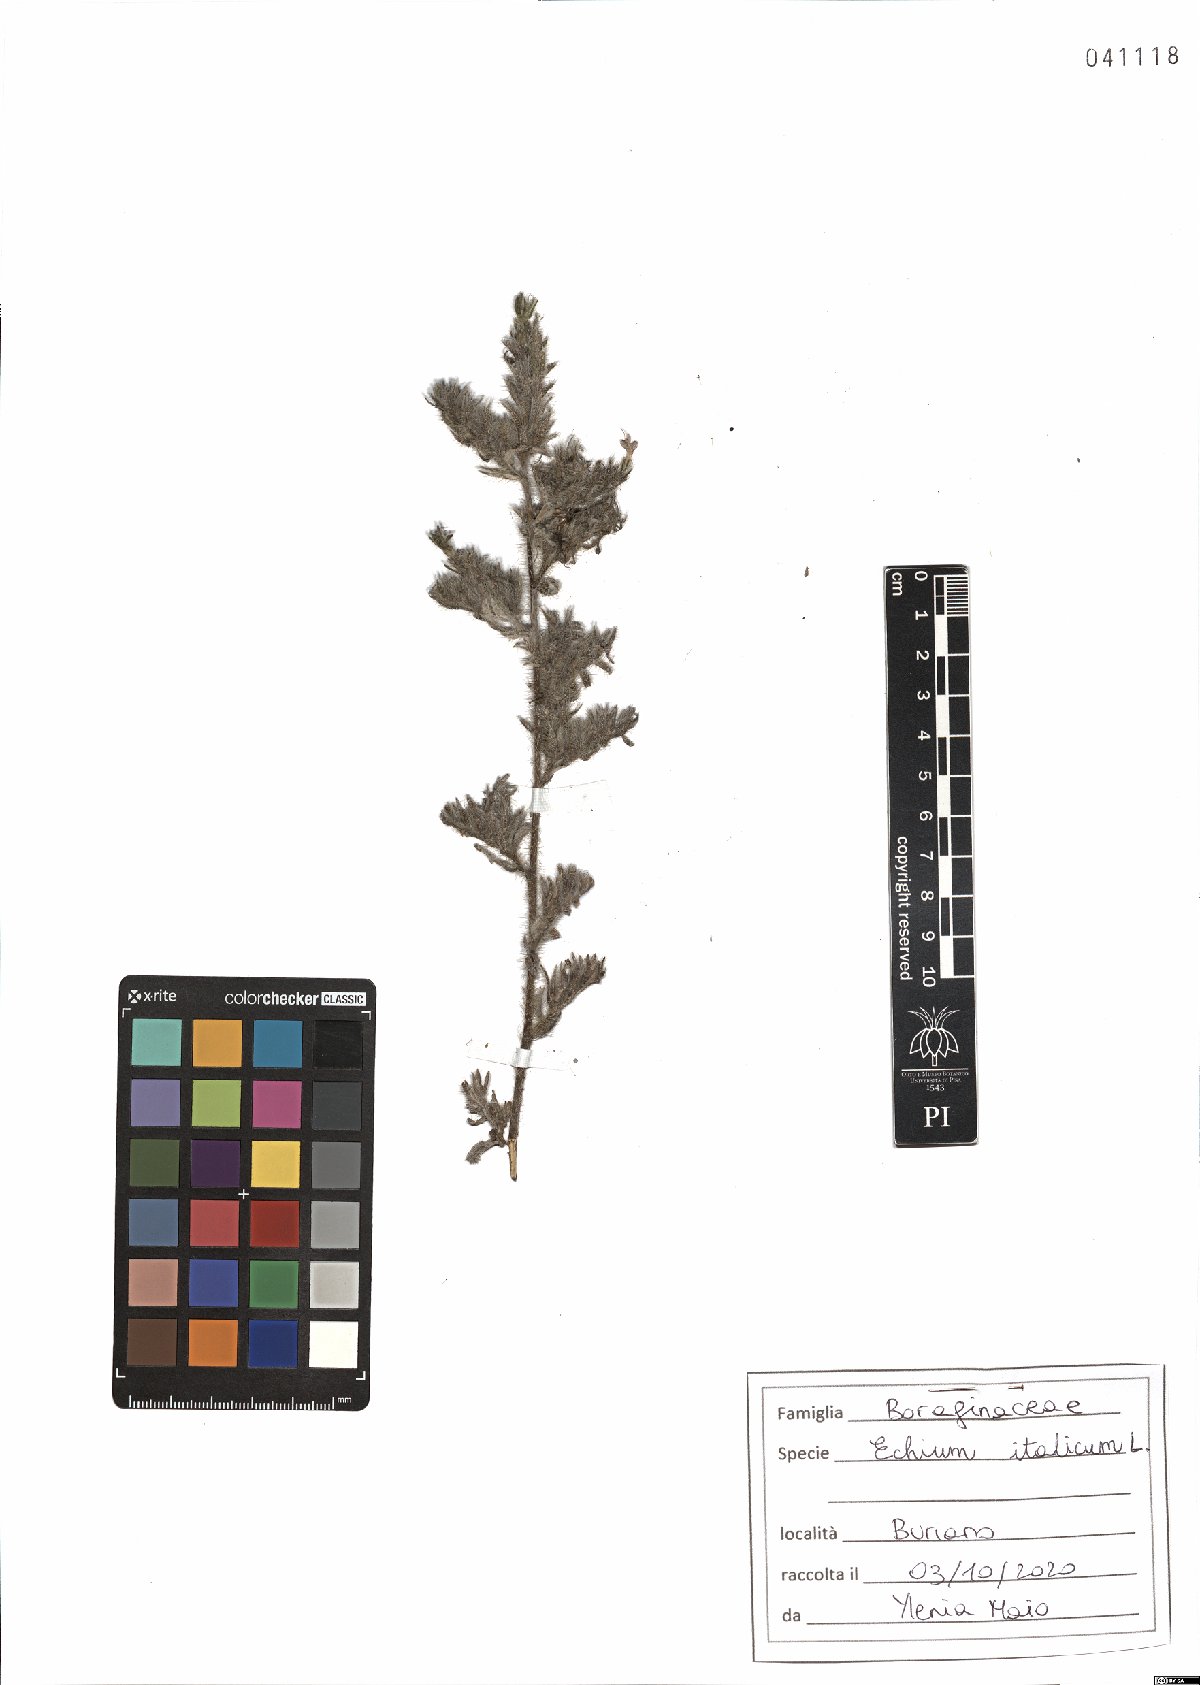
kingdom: Plantae
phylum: Tracheophyta
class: Magnoliopsida
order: Boraginales
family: Boraginaceae
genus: Echium
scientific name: Echium italicum
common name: Italian viper's bugloss
